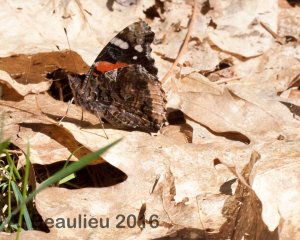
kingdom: Animalia
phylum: Arthropoda
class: Insecta
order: Lepidoptera
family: Nymphalidae
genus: Vanessa
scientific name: Vanessa atalanta
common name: Red Admiral
